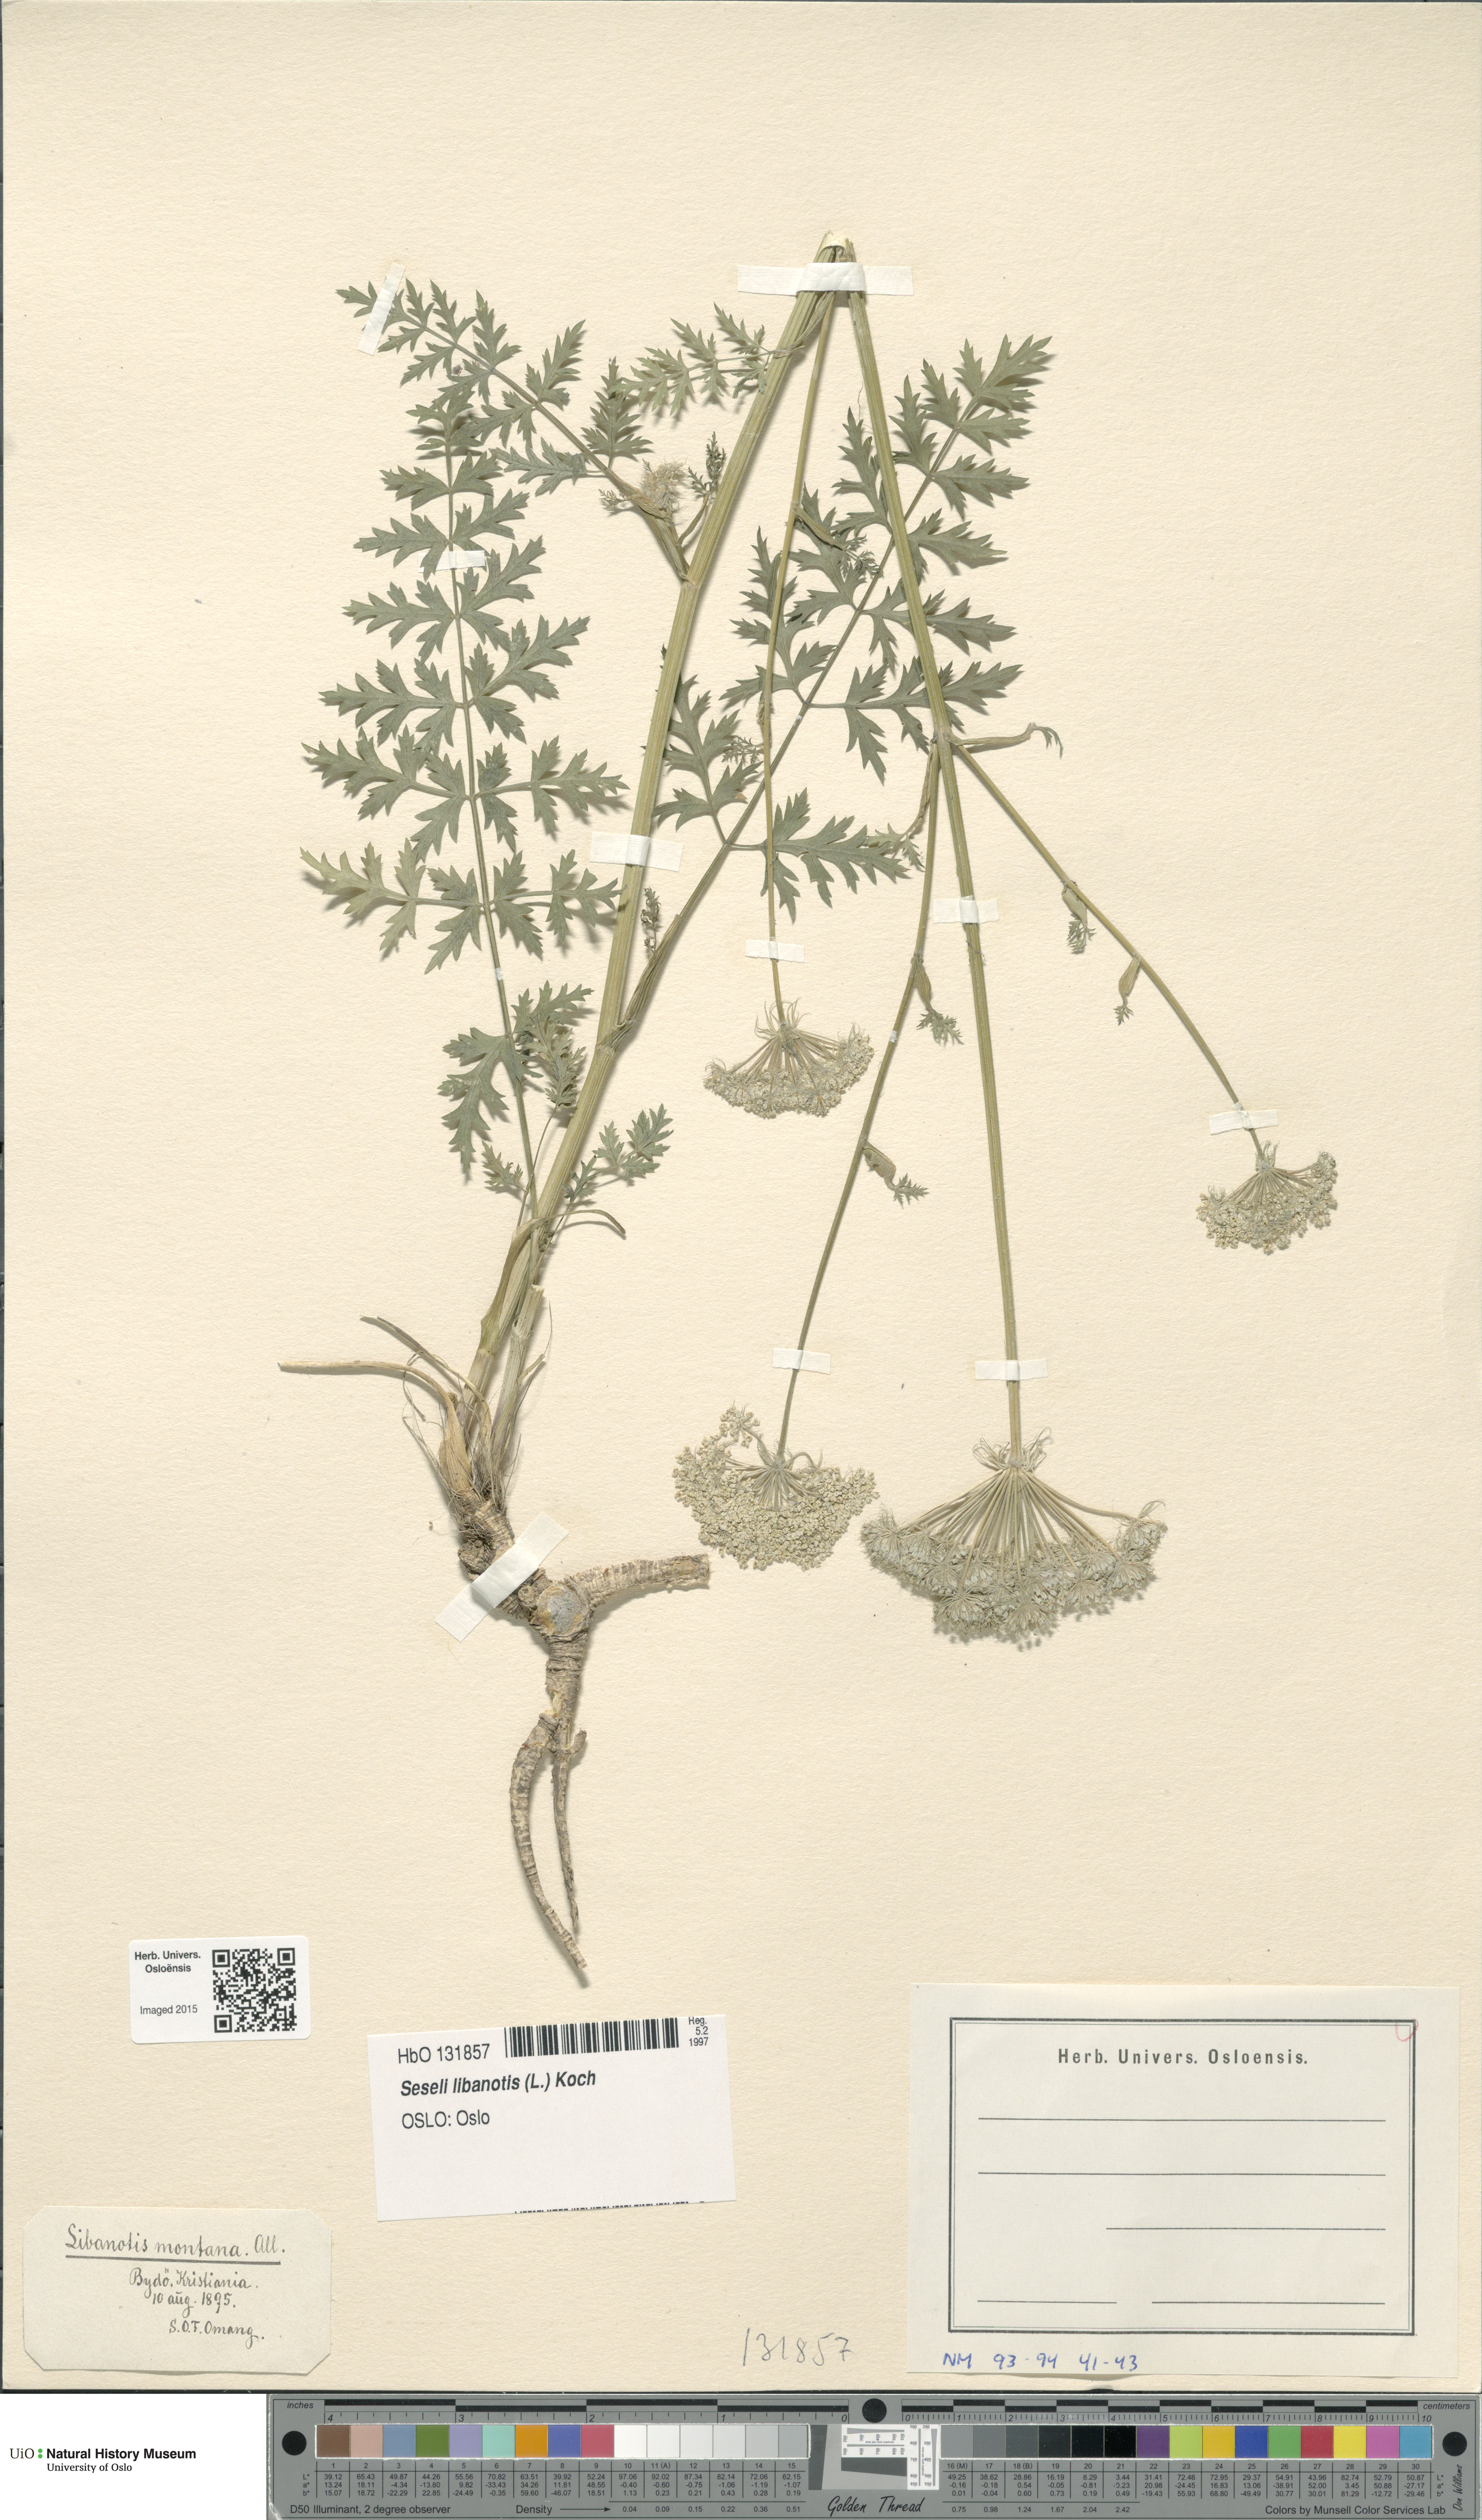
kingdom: Plantae
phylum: Tracheophyta
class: Magnoliopsida
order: Apiales
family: Apiaceae
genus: Seseli
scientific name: Seseli libanotis
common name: Mooncarrot
